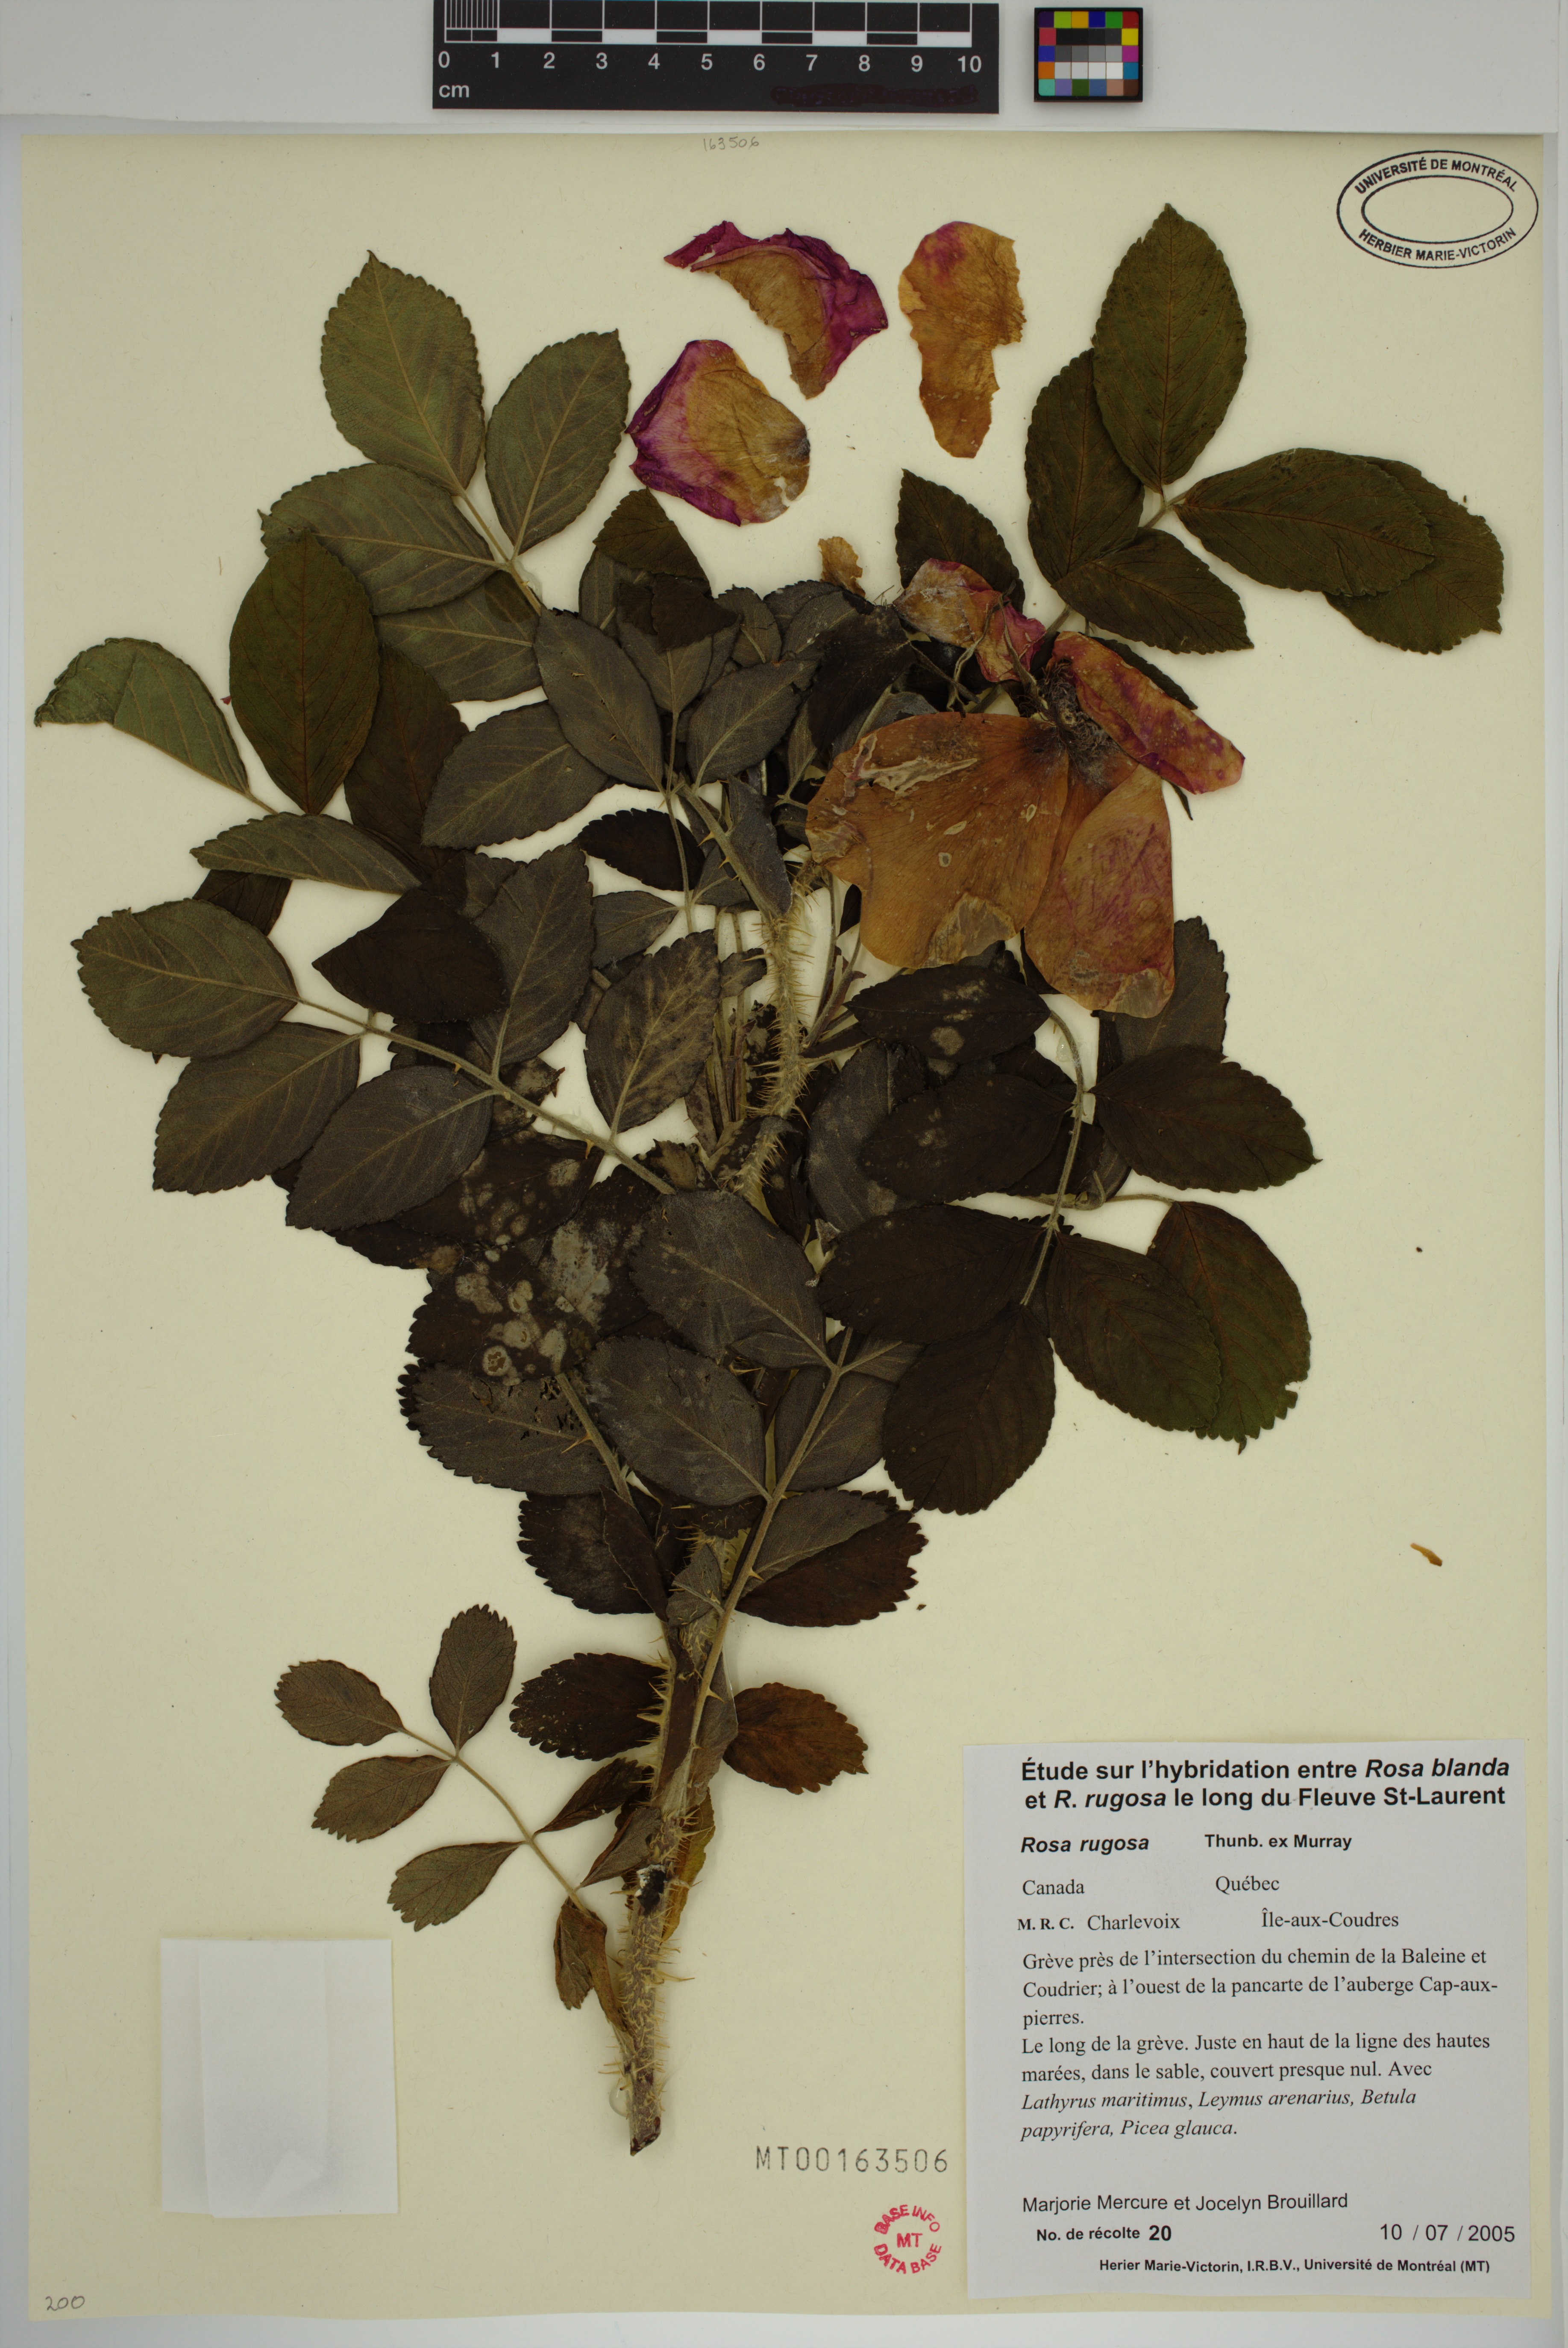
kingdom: Plantae
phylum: Tracheophyta
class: Magnoliopsida
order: Rosales
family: Rosaceae
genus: Rosa
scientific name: Rosa rugosa
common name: Japanese rose
